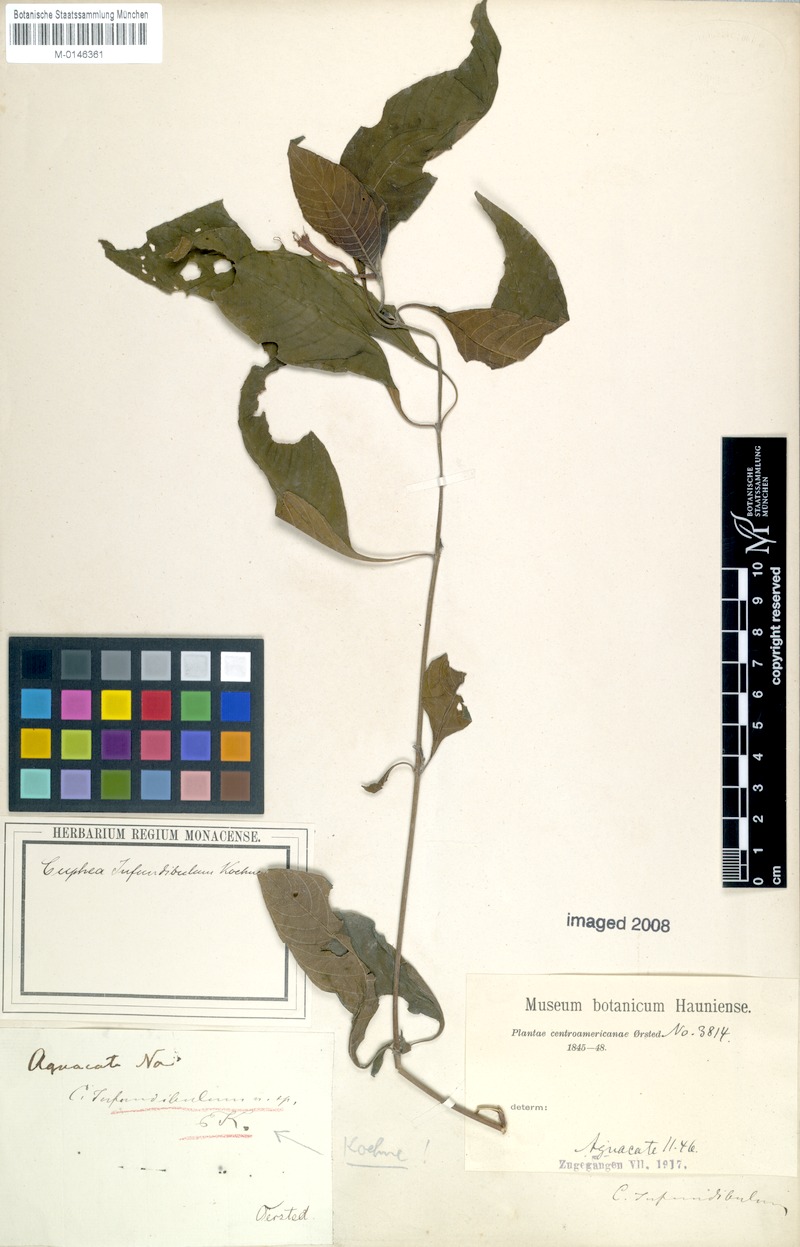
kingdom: Plantae
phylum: Tracheophyta
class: Magnoliopsida
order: Myrtales
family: Lythraceae
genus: Cuphea
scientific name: Cuphea appendiculata
